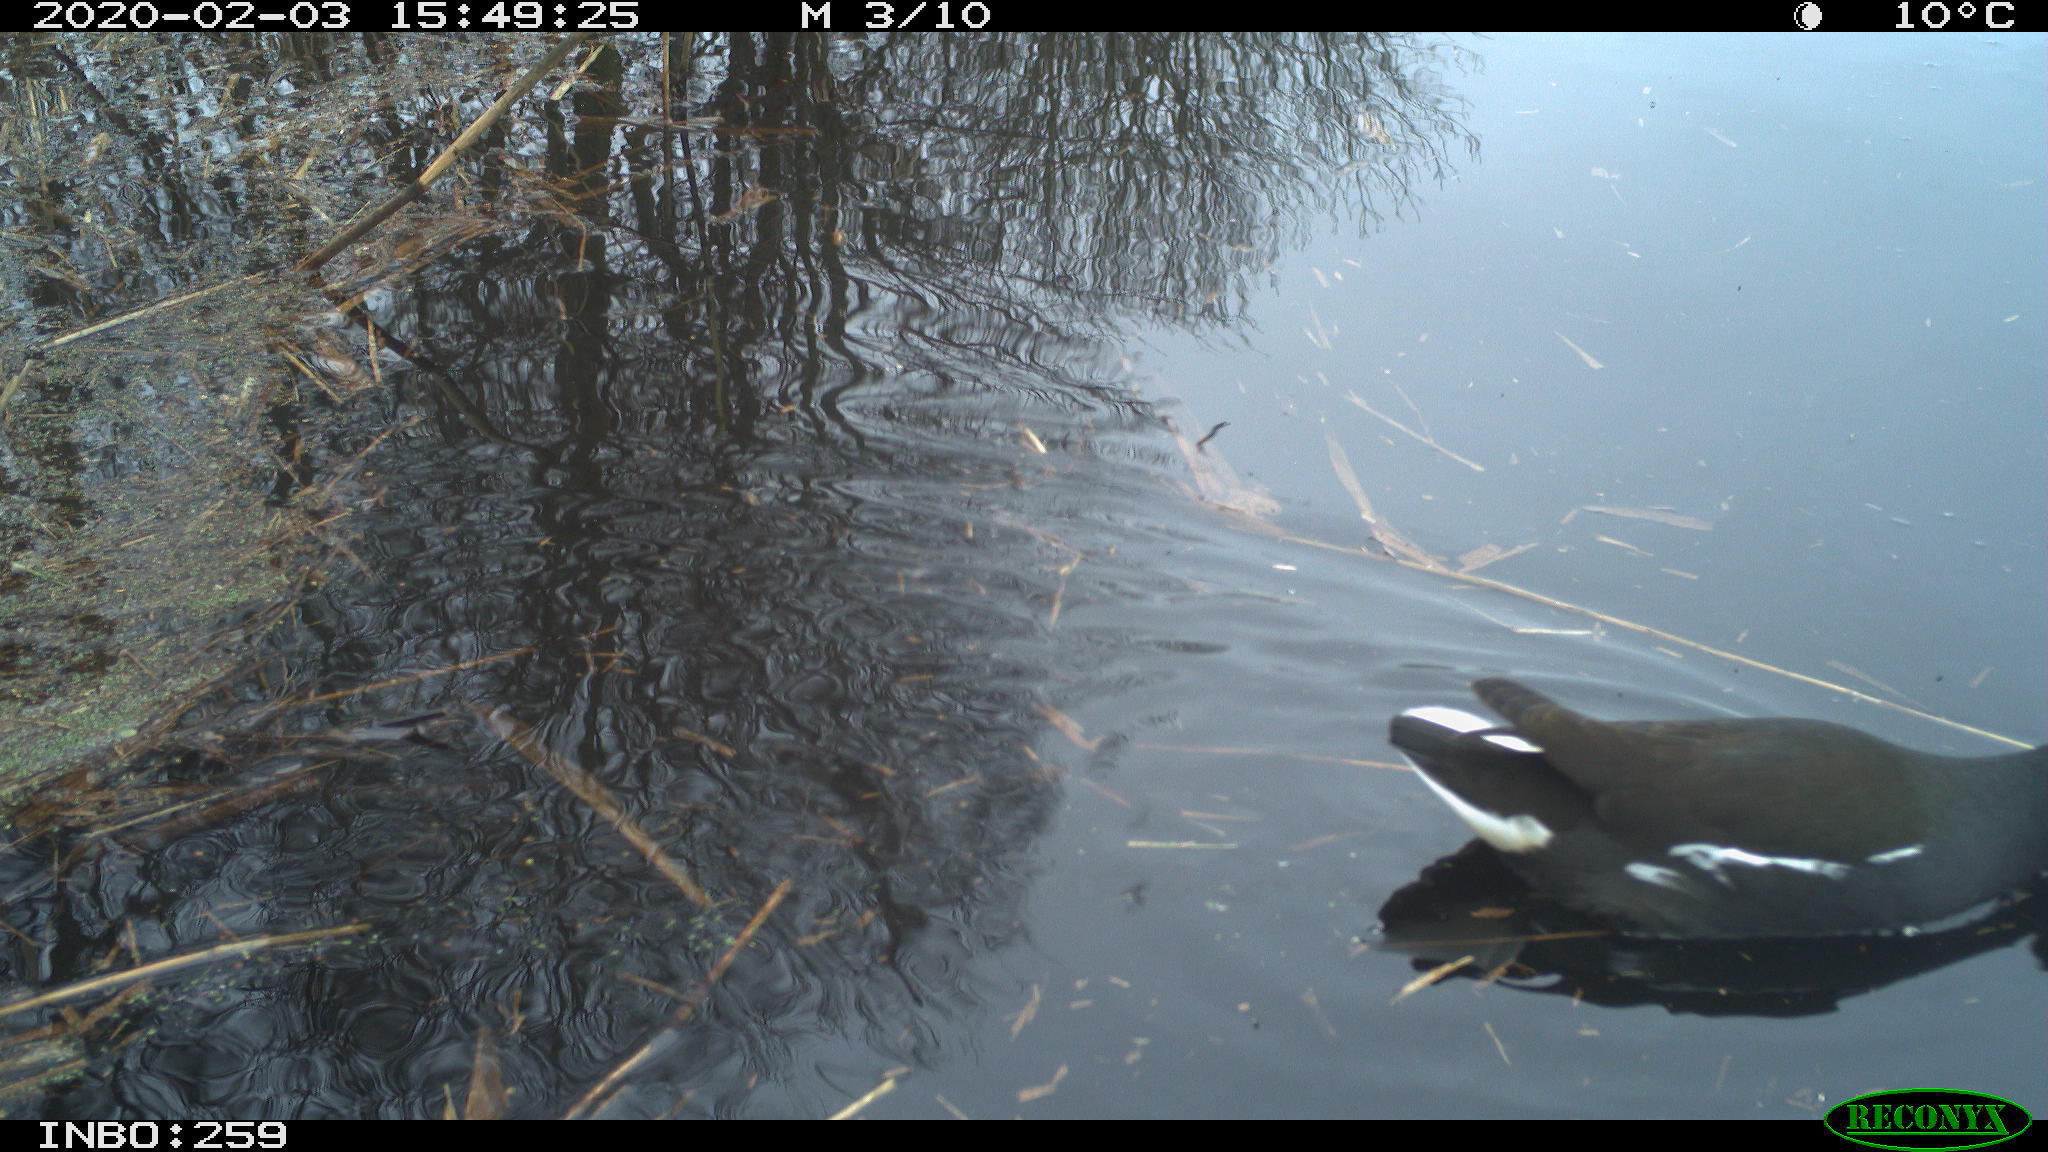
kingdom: Animalia
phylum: Chordata
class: Aves
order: Gruiformes
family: Rallidae
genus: Gallinula
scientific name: Gallinula chloropus
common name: Common moorhen
